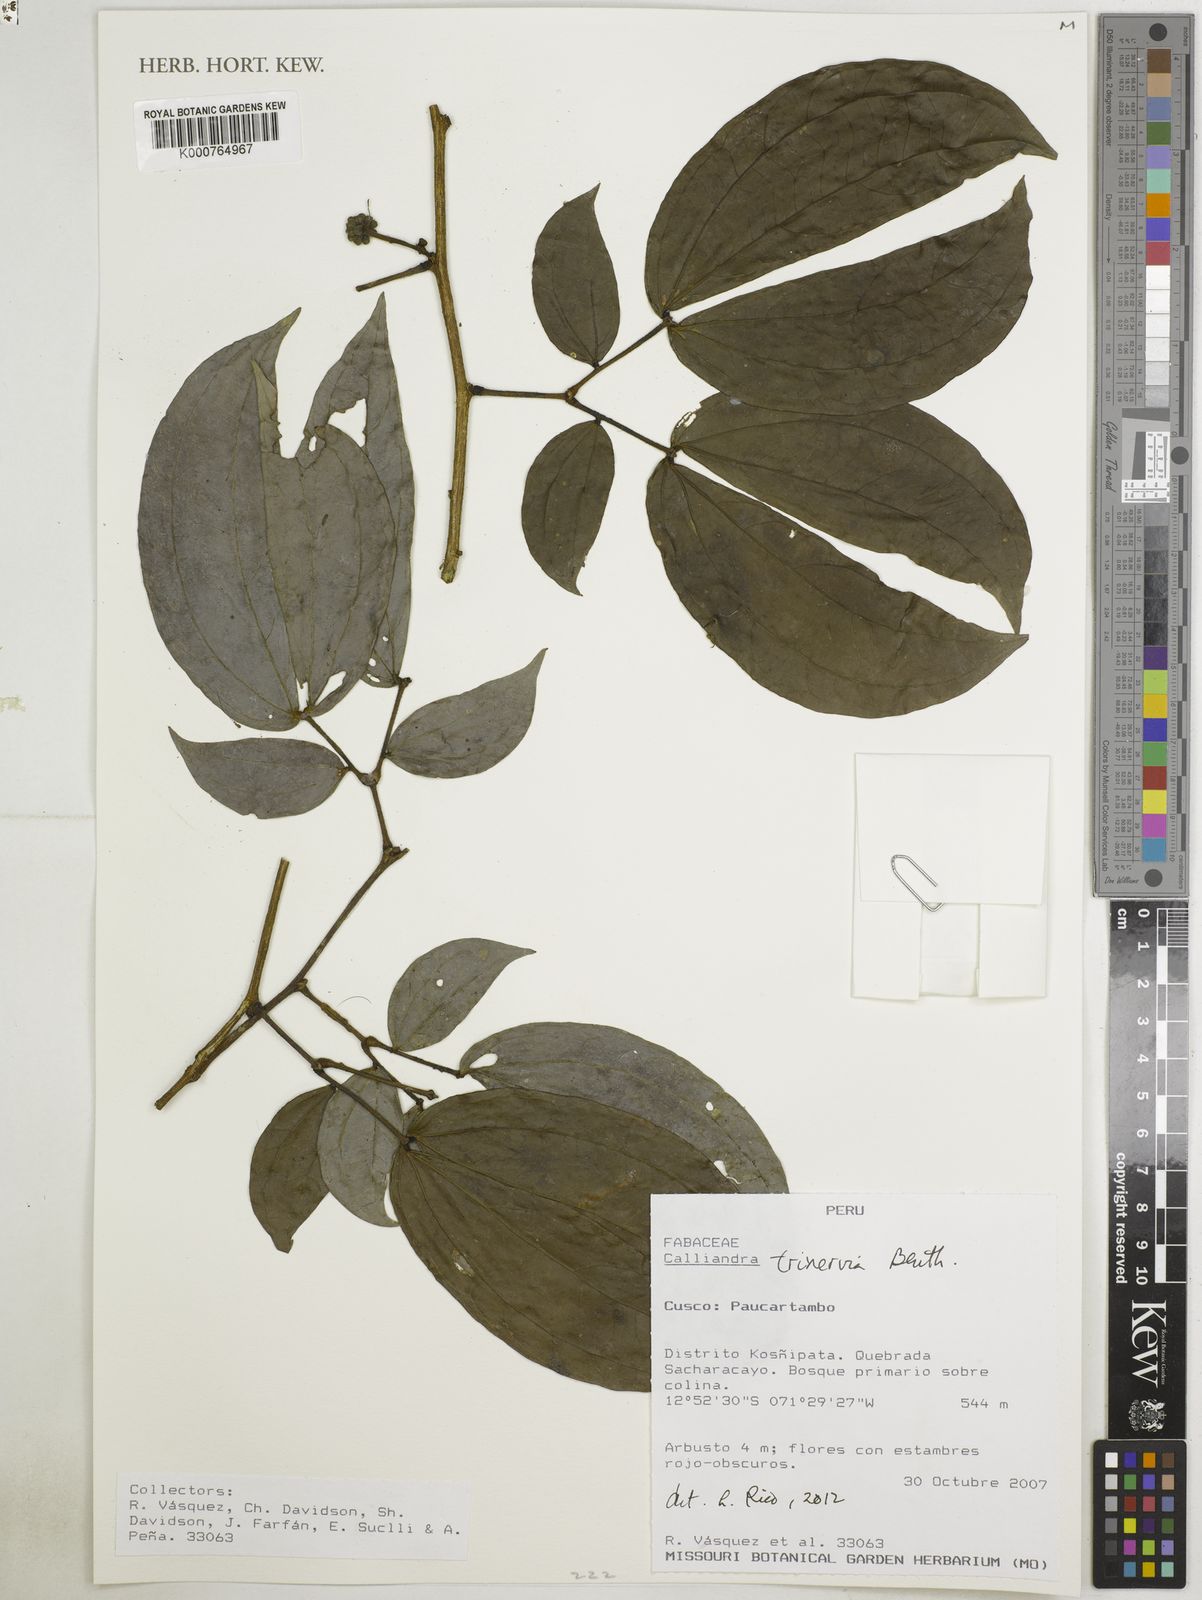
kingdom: Plantae
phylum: Tracheophyta
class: Magnoliopsida
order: Fabales
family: Fabaceae
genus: Calliandra
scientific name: Calliandra trinervia
